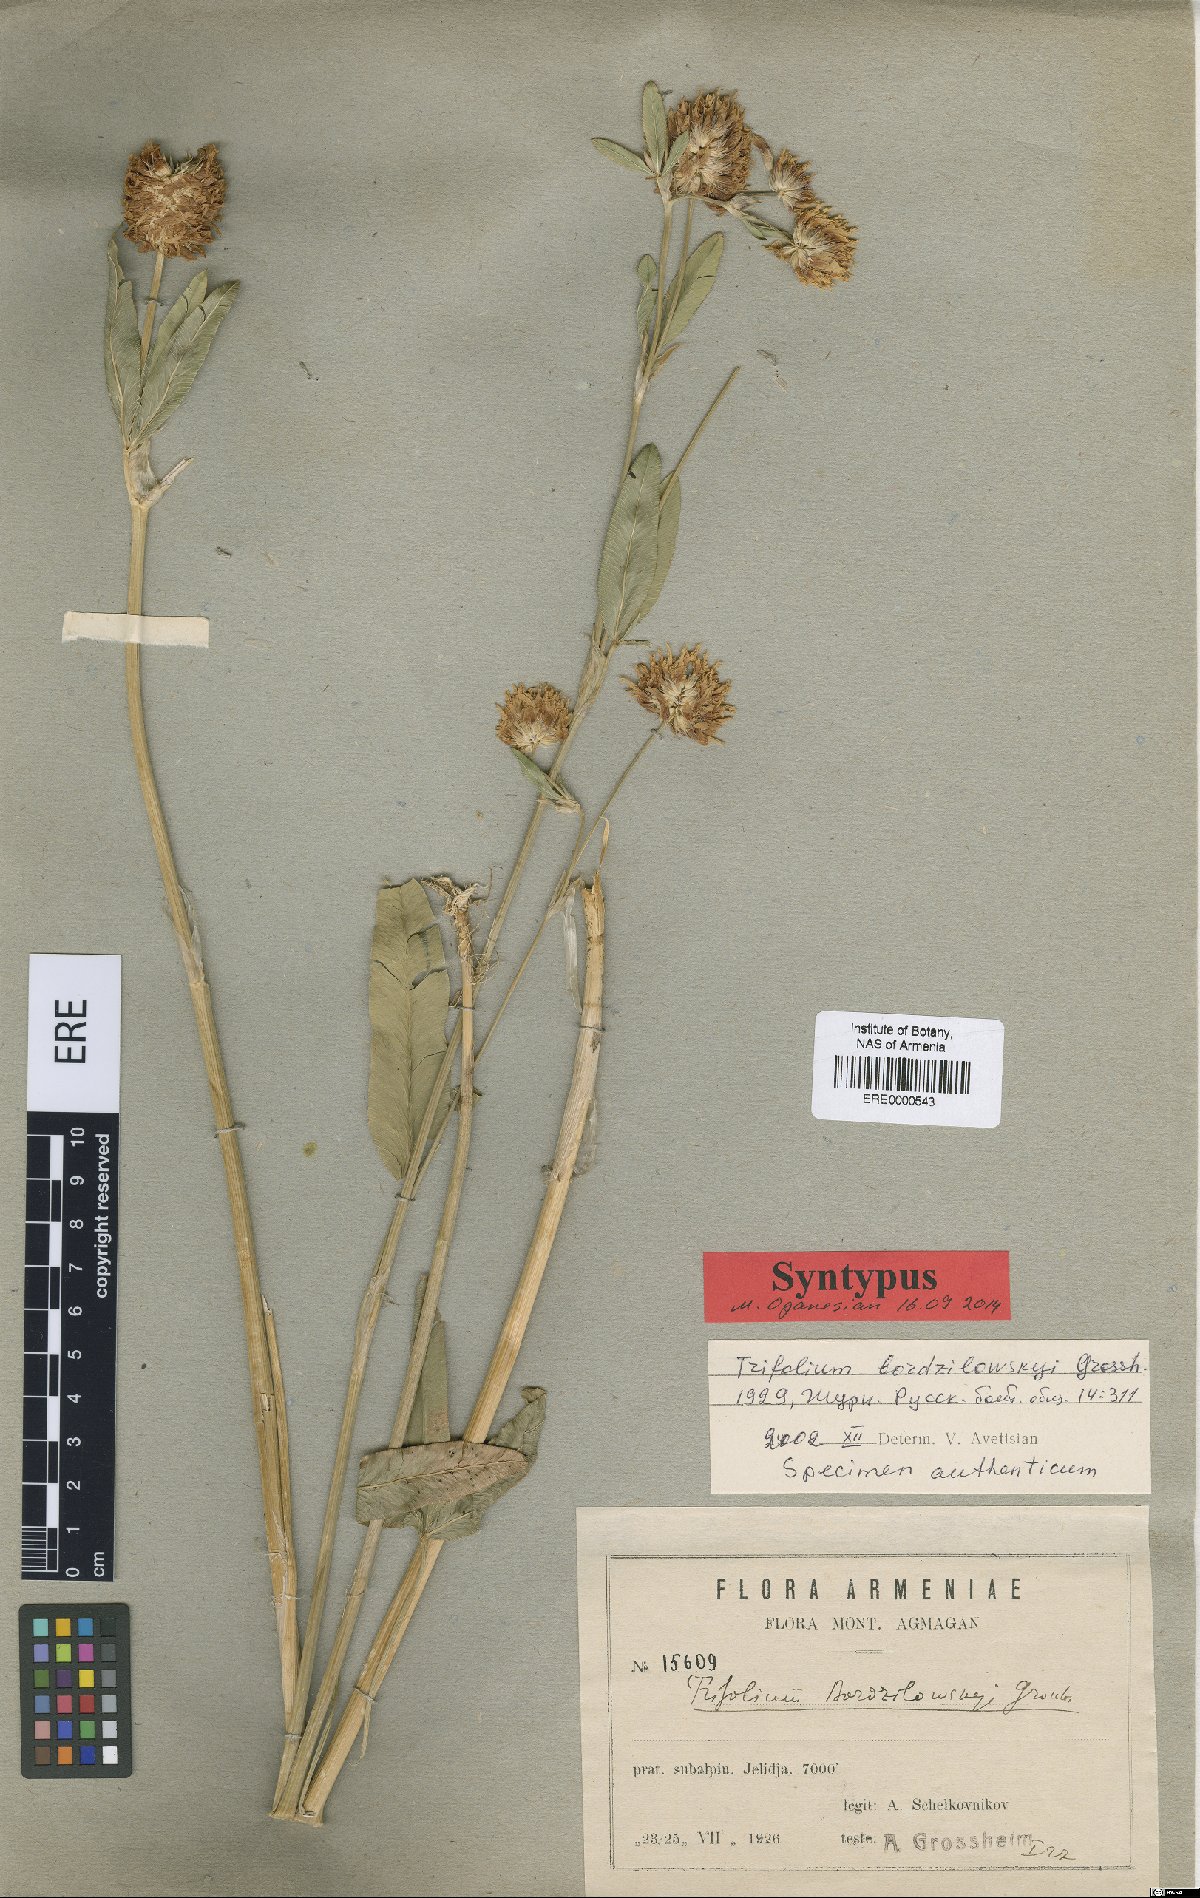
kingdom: Plantae
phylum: Tracheophyta
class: Magnoliopsida
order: Fabales
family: Fabaceae
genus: Trifolium
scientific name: Trifolium bordsilovskyi
